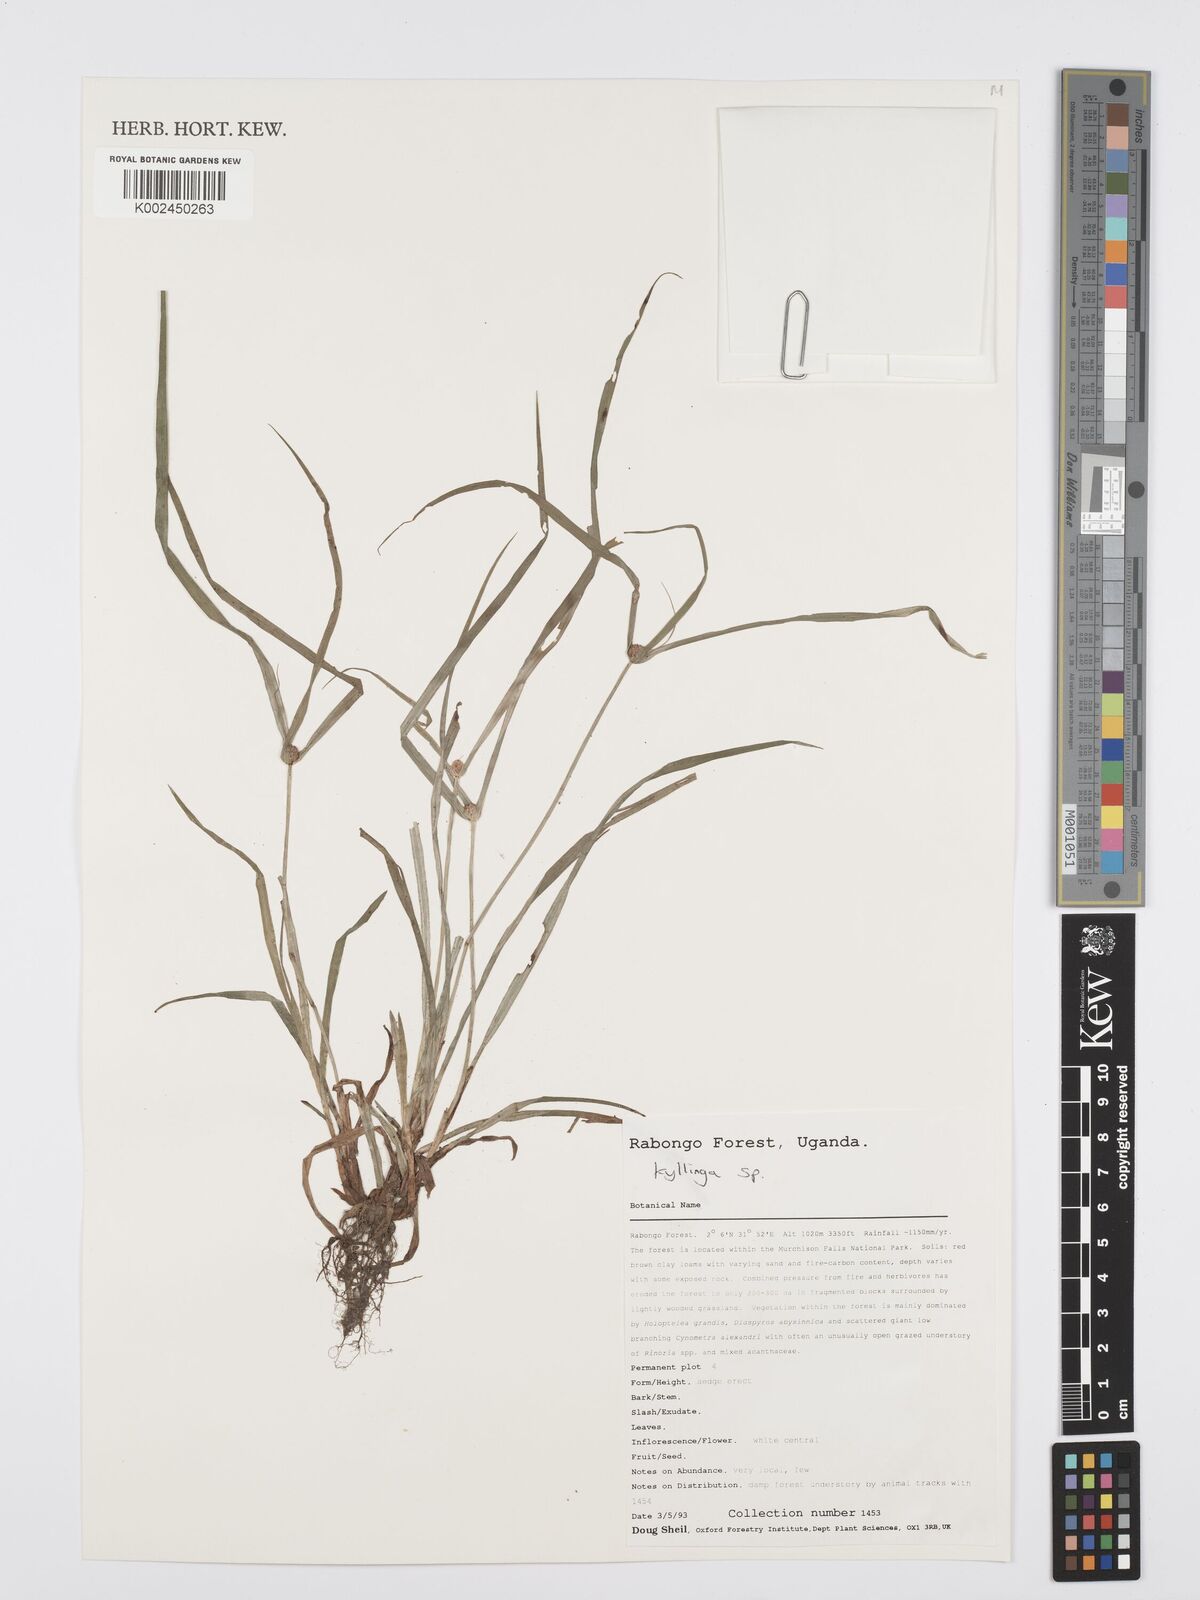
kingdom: Plantae
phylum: Tracheophyta
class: Liliopsida
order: Poales
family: Cyperaceae
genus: Cyperus
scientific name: Cyperus
